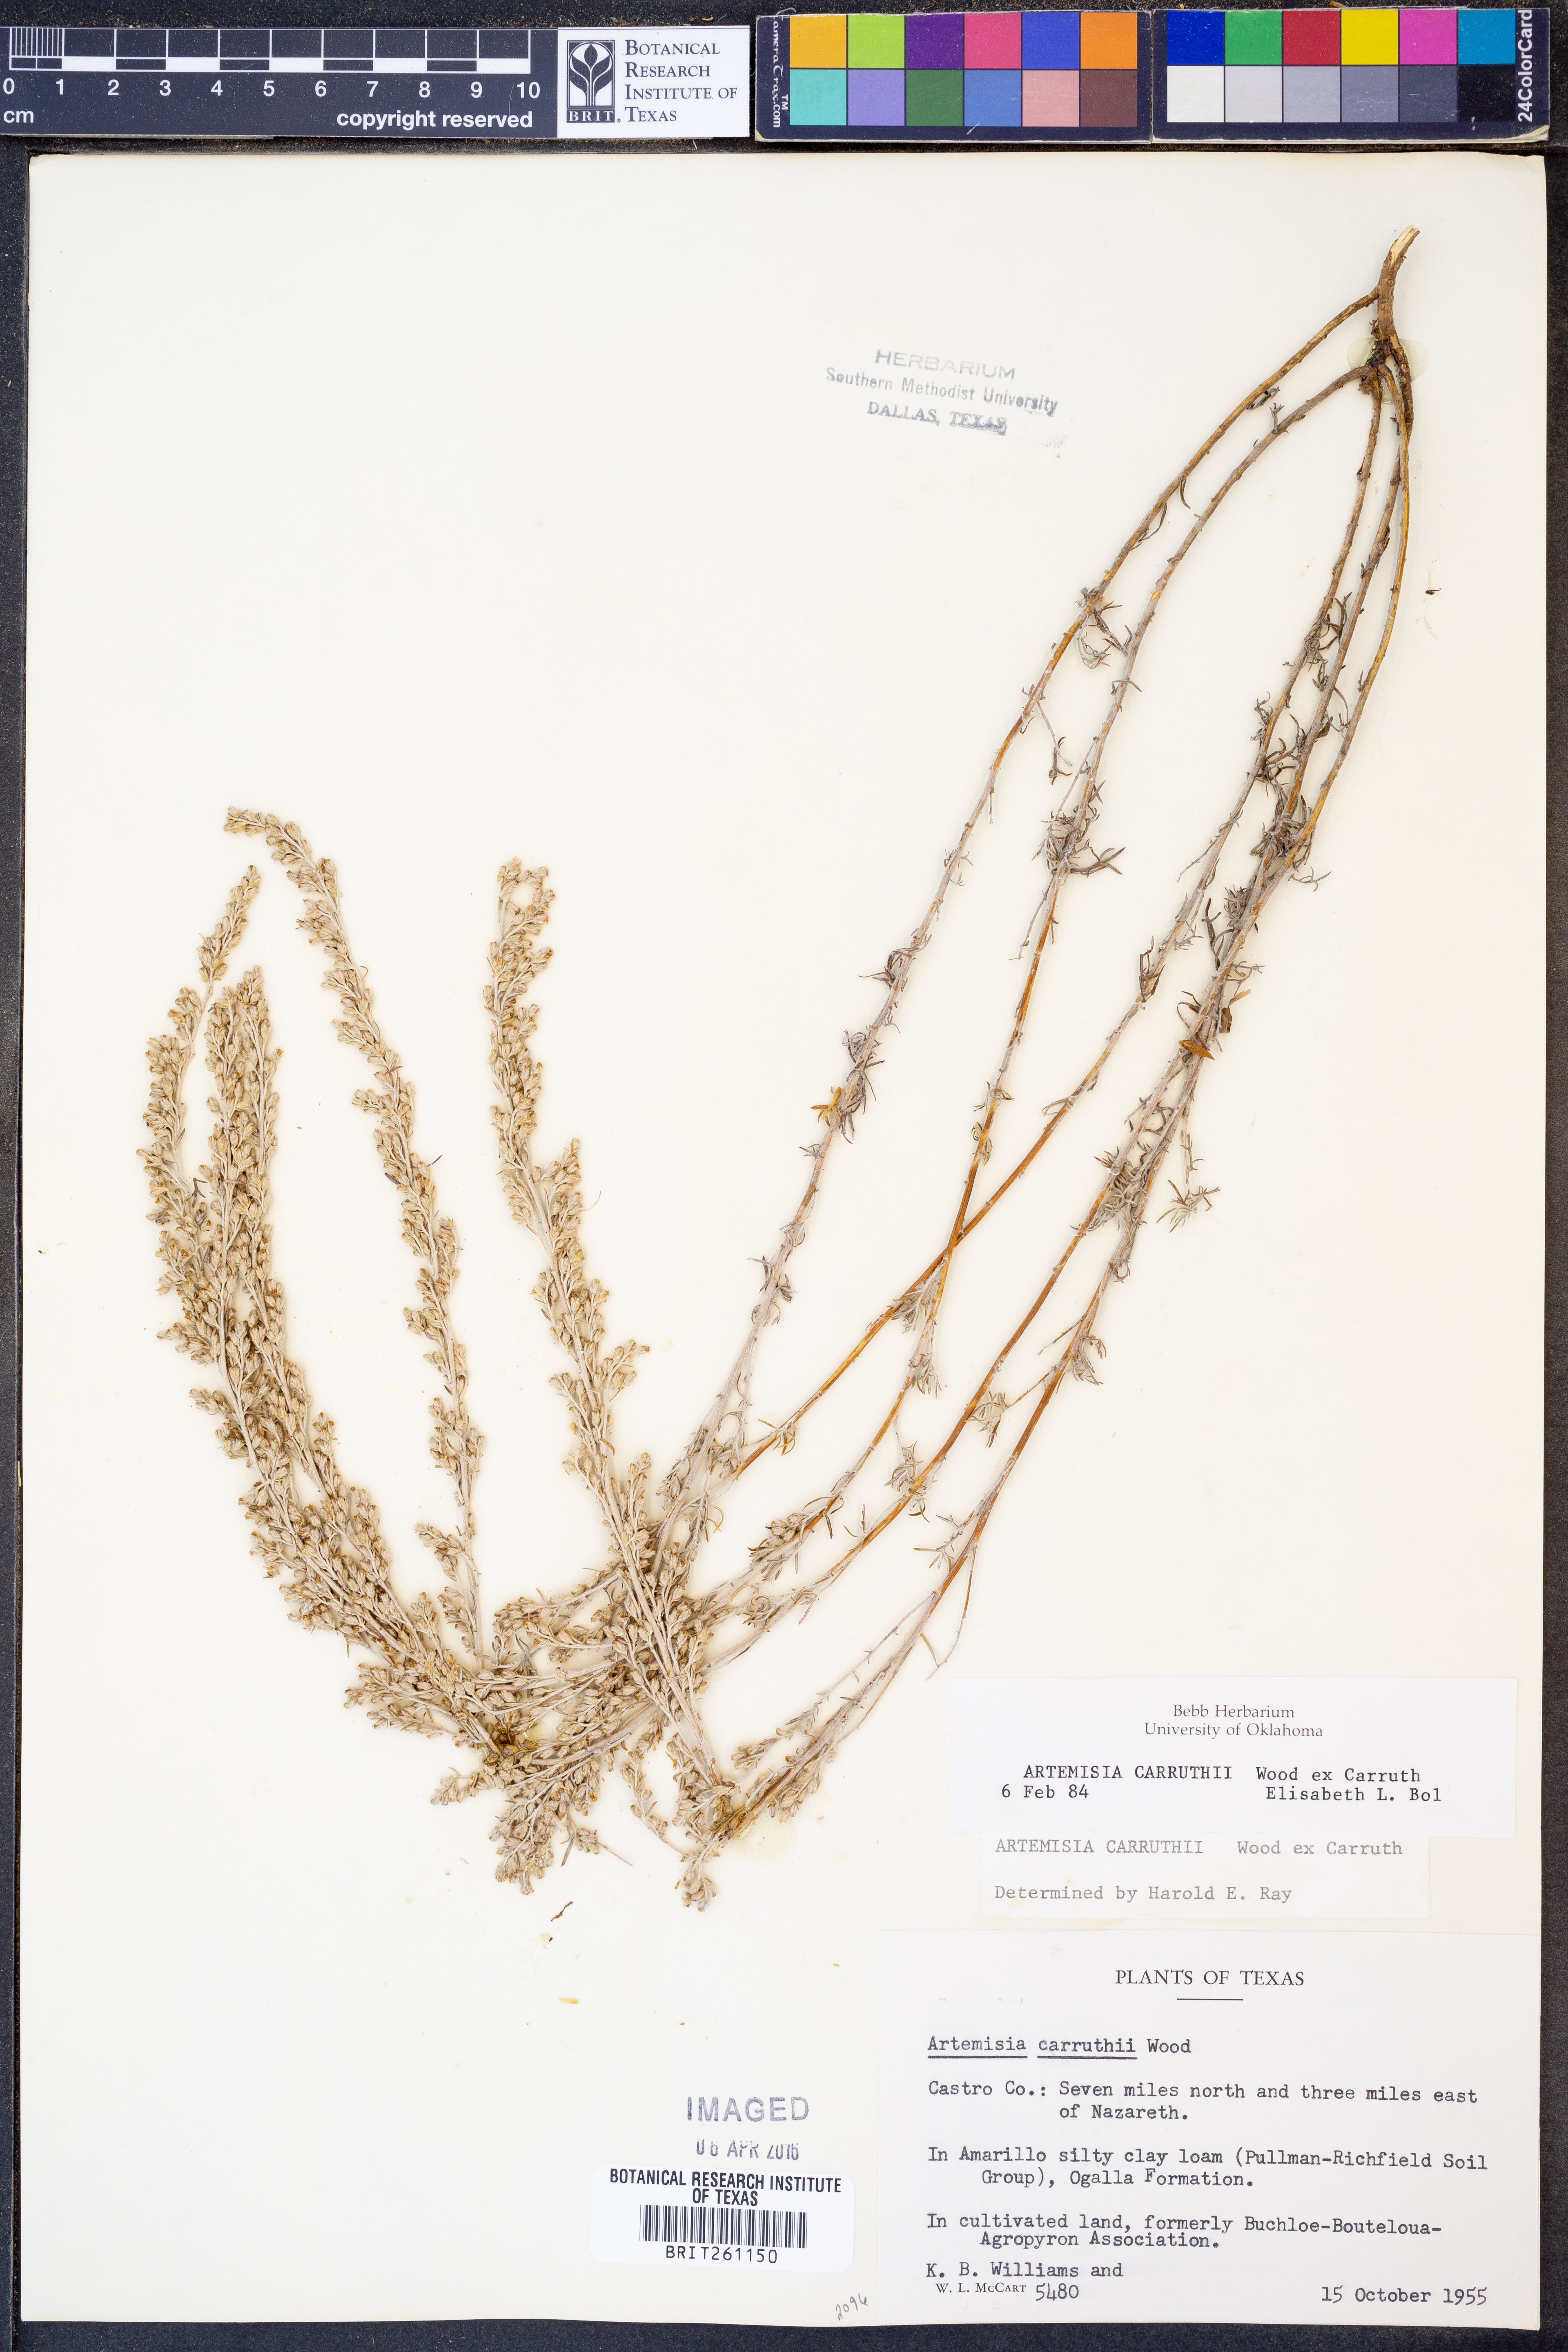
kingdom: Plantae
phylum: Tracheophyta
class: Magnoliopsida
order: Asterales
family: Asteraceae
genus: Artemisia
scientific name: Artemisia carruthii
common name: Carruth wormwood
